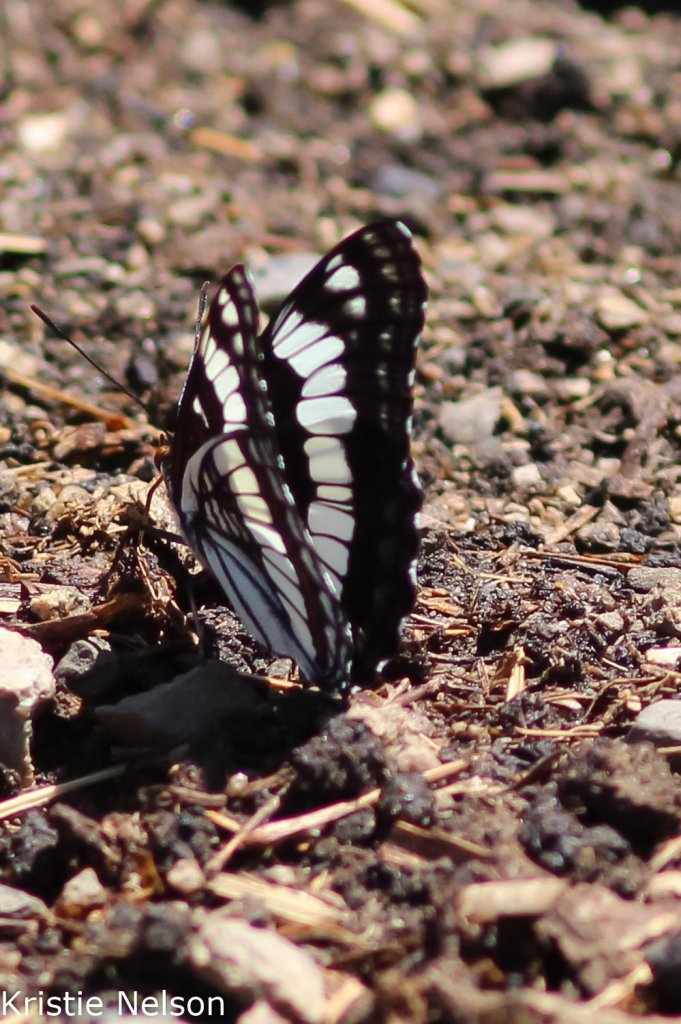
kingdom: Animalia
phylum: Arthropoda
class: Insecta
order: Lepidoptera
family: Nymphalidae
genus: Limenitis
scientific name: Limenitis weidemeyerii
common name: Weidemeyer's Admiral
